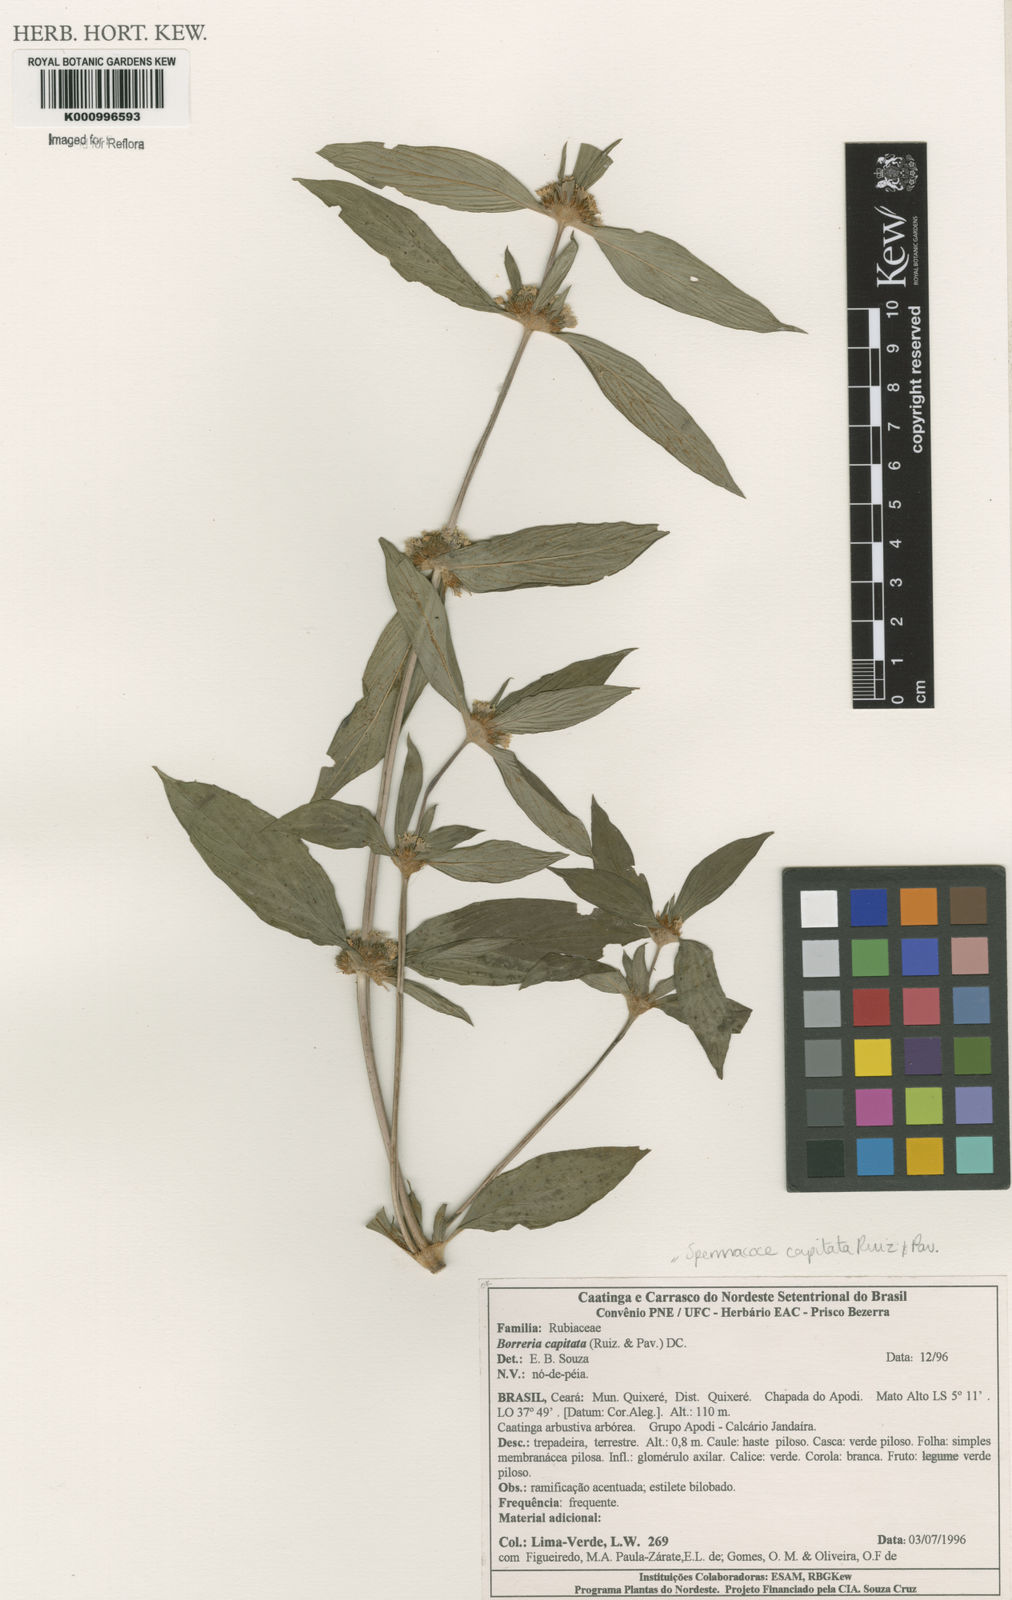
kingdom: Plantae
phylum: Tracheophyta
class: Magnoliopsida
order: Gentianales
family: Rubiaceae
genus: Spermacoce
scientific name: Spermacoce capitata
